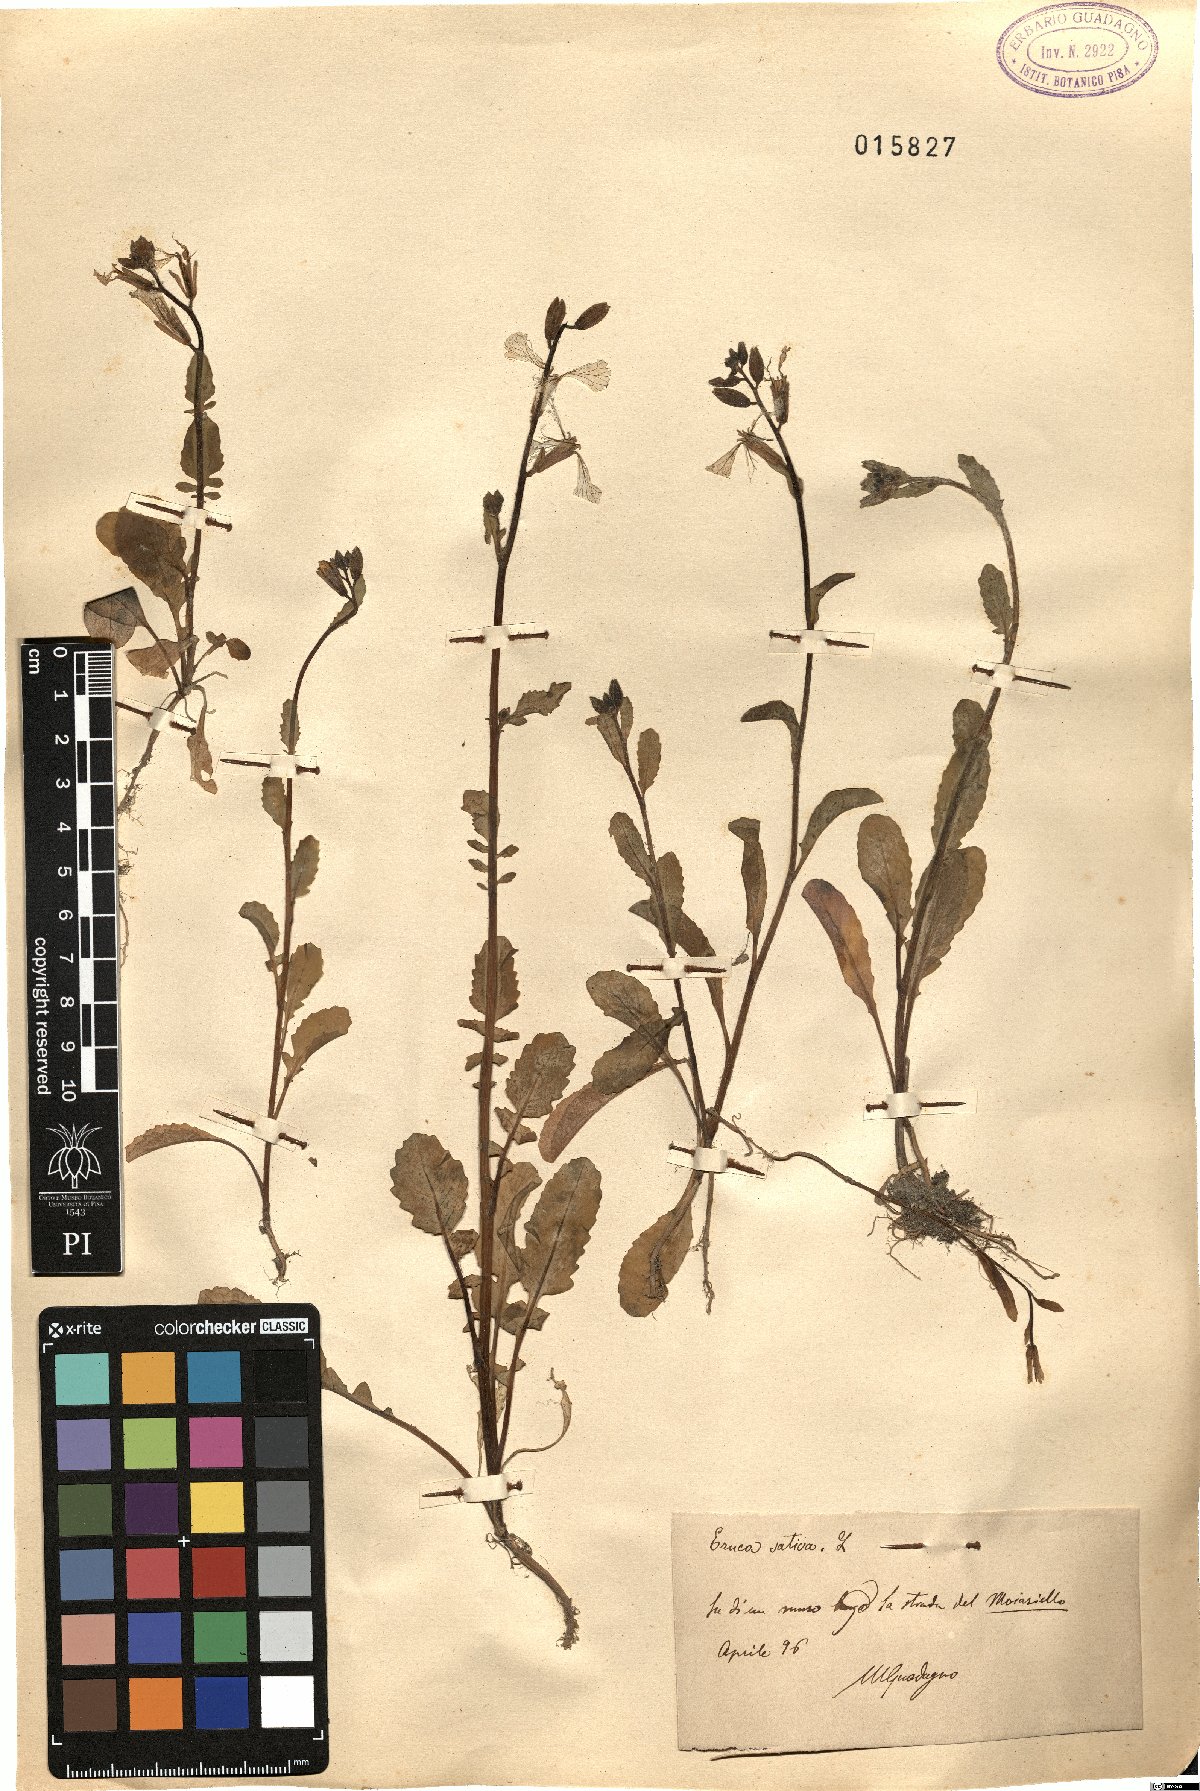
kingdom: Plantae
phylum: Tracheophyta
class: Magnoliopsida
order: Brassicales
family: Brassicaceae
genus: Eruca
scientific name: Eruca vesicaria
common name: Garden rocket
